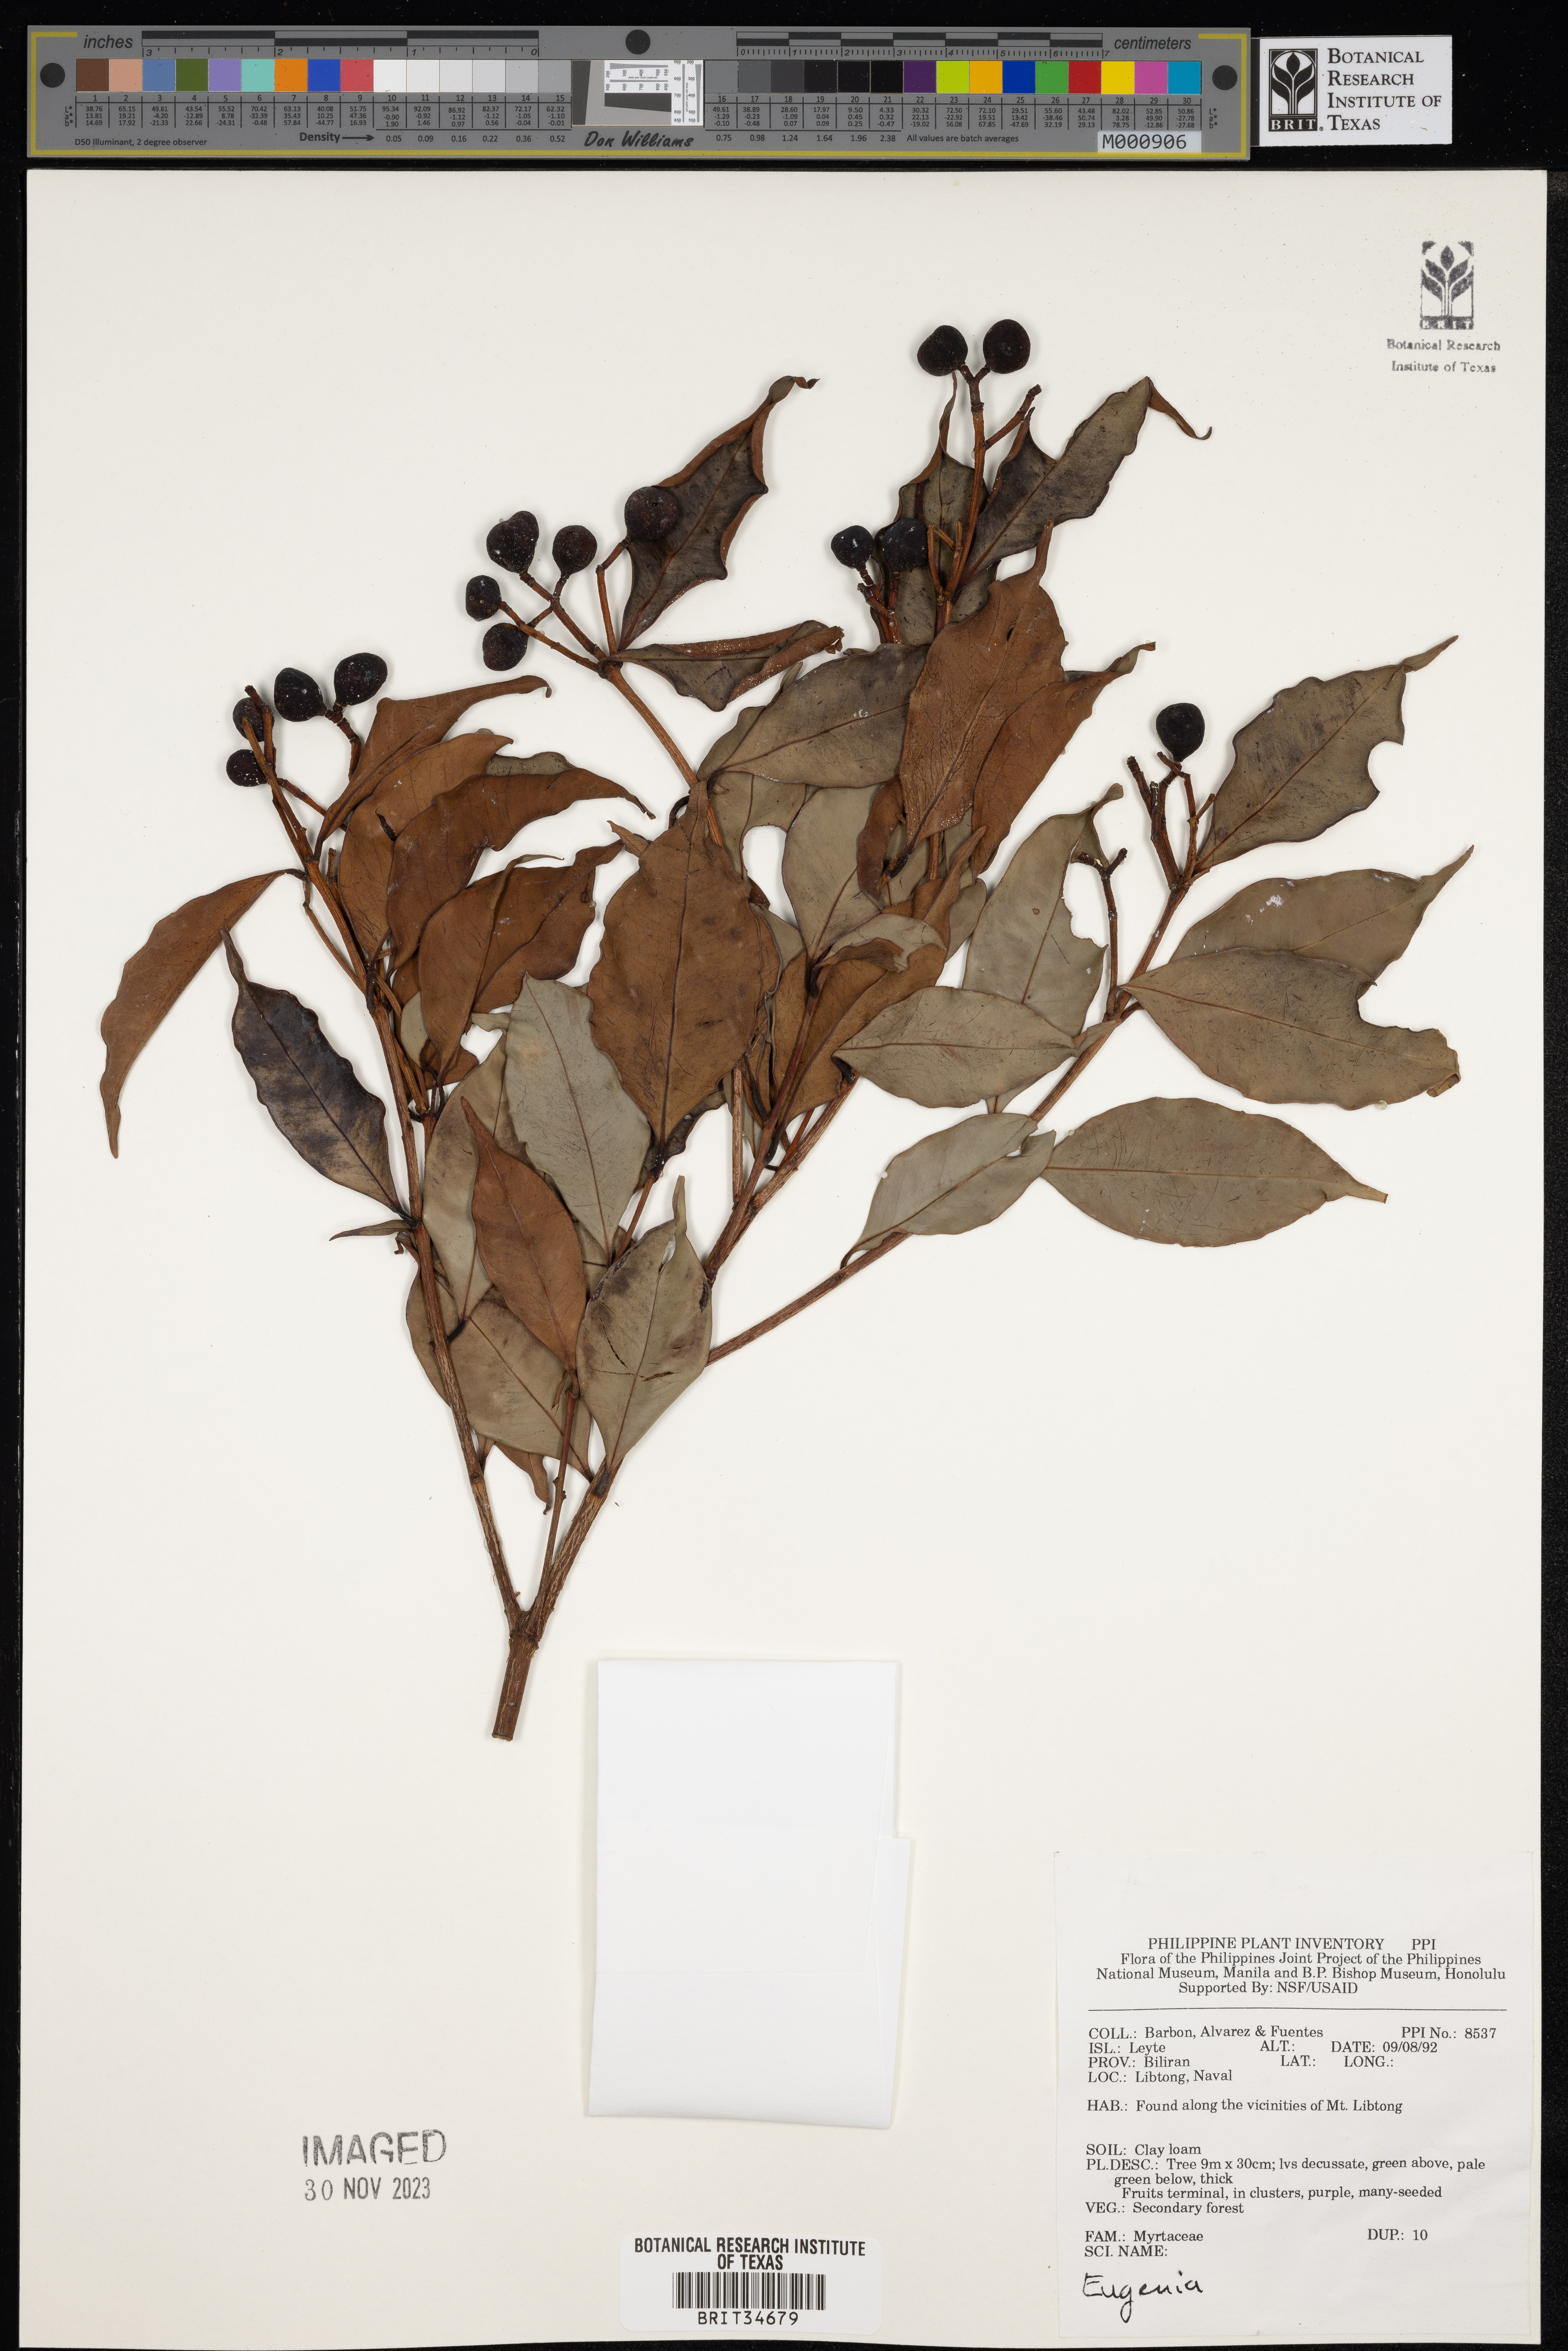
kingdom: Plantae
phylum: Tracheophyta
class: Magnoliopsida
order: Myrtales
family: Myrtaceae
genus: Eugenia
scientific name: Eugenia
